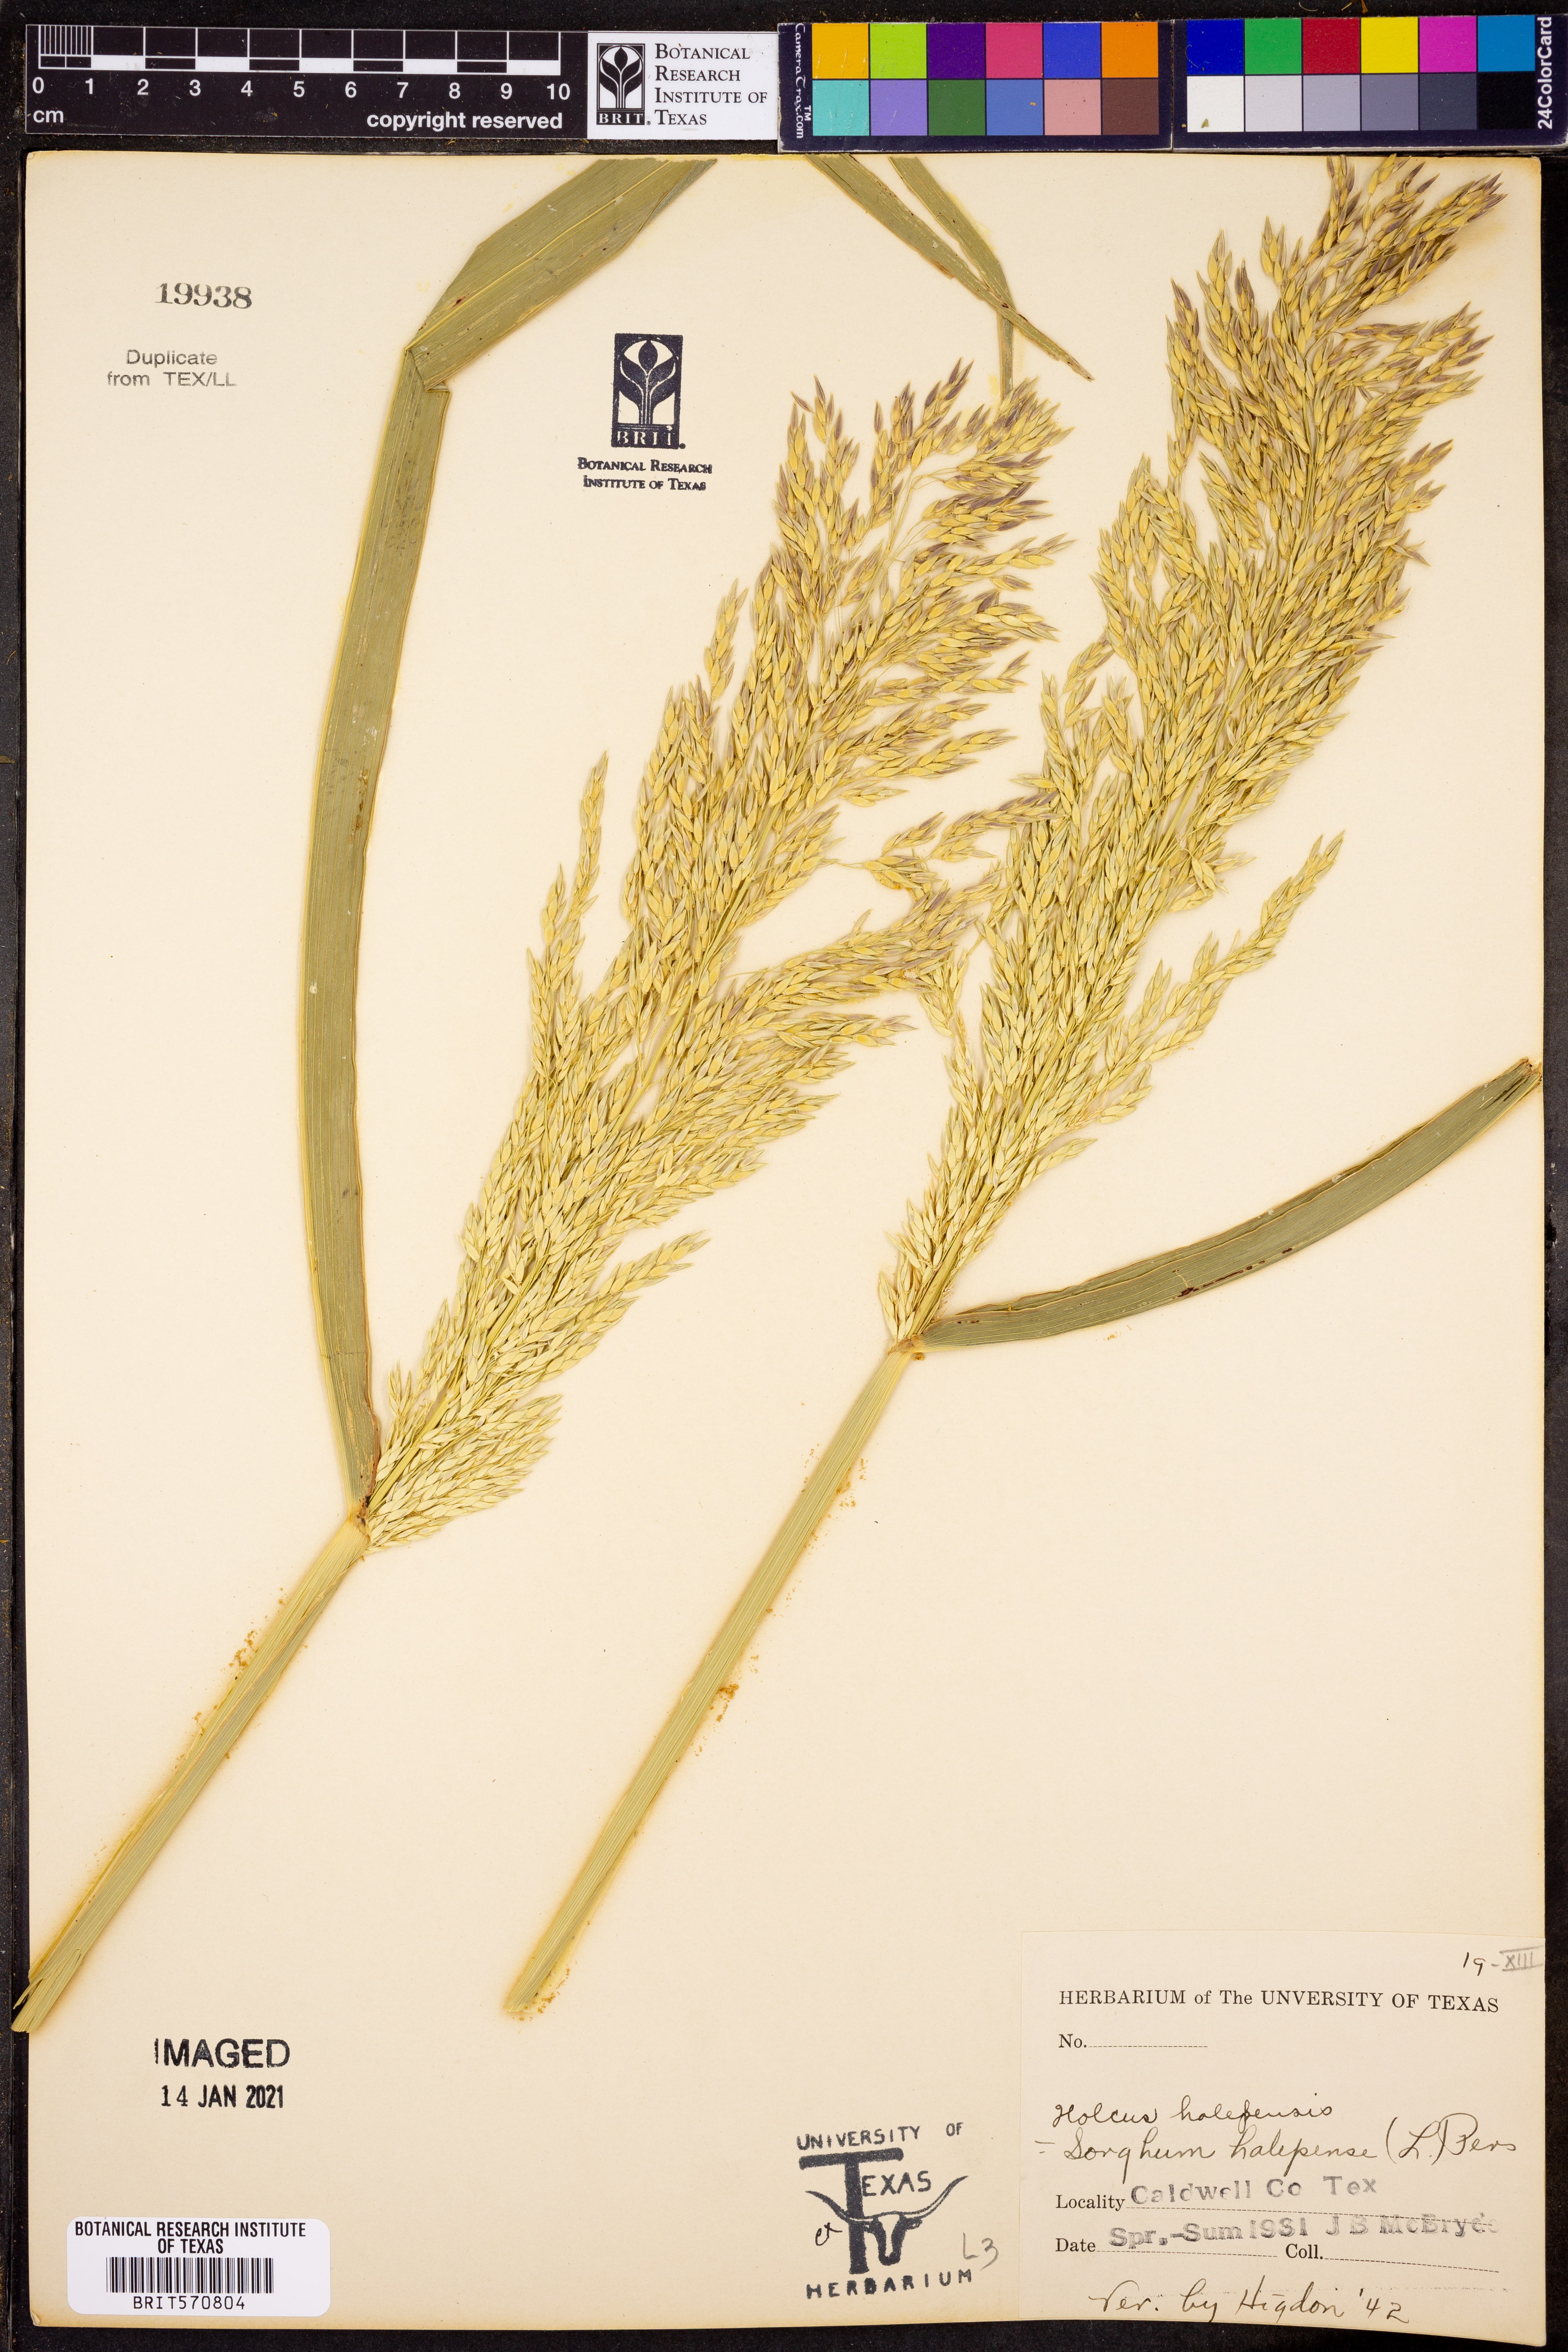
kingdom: Plantae
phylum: Tracheophyta
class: Liliopsida
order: Poales
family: Poaceae
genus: Sorghum
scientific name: Sorghum halepense
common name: Johnson-grass
